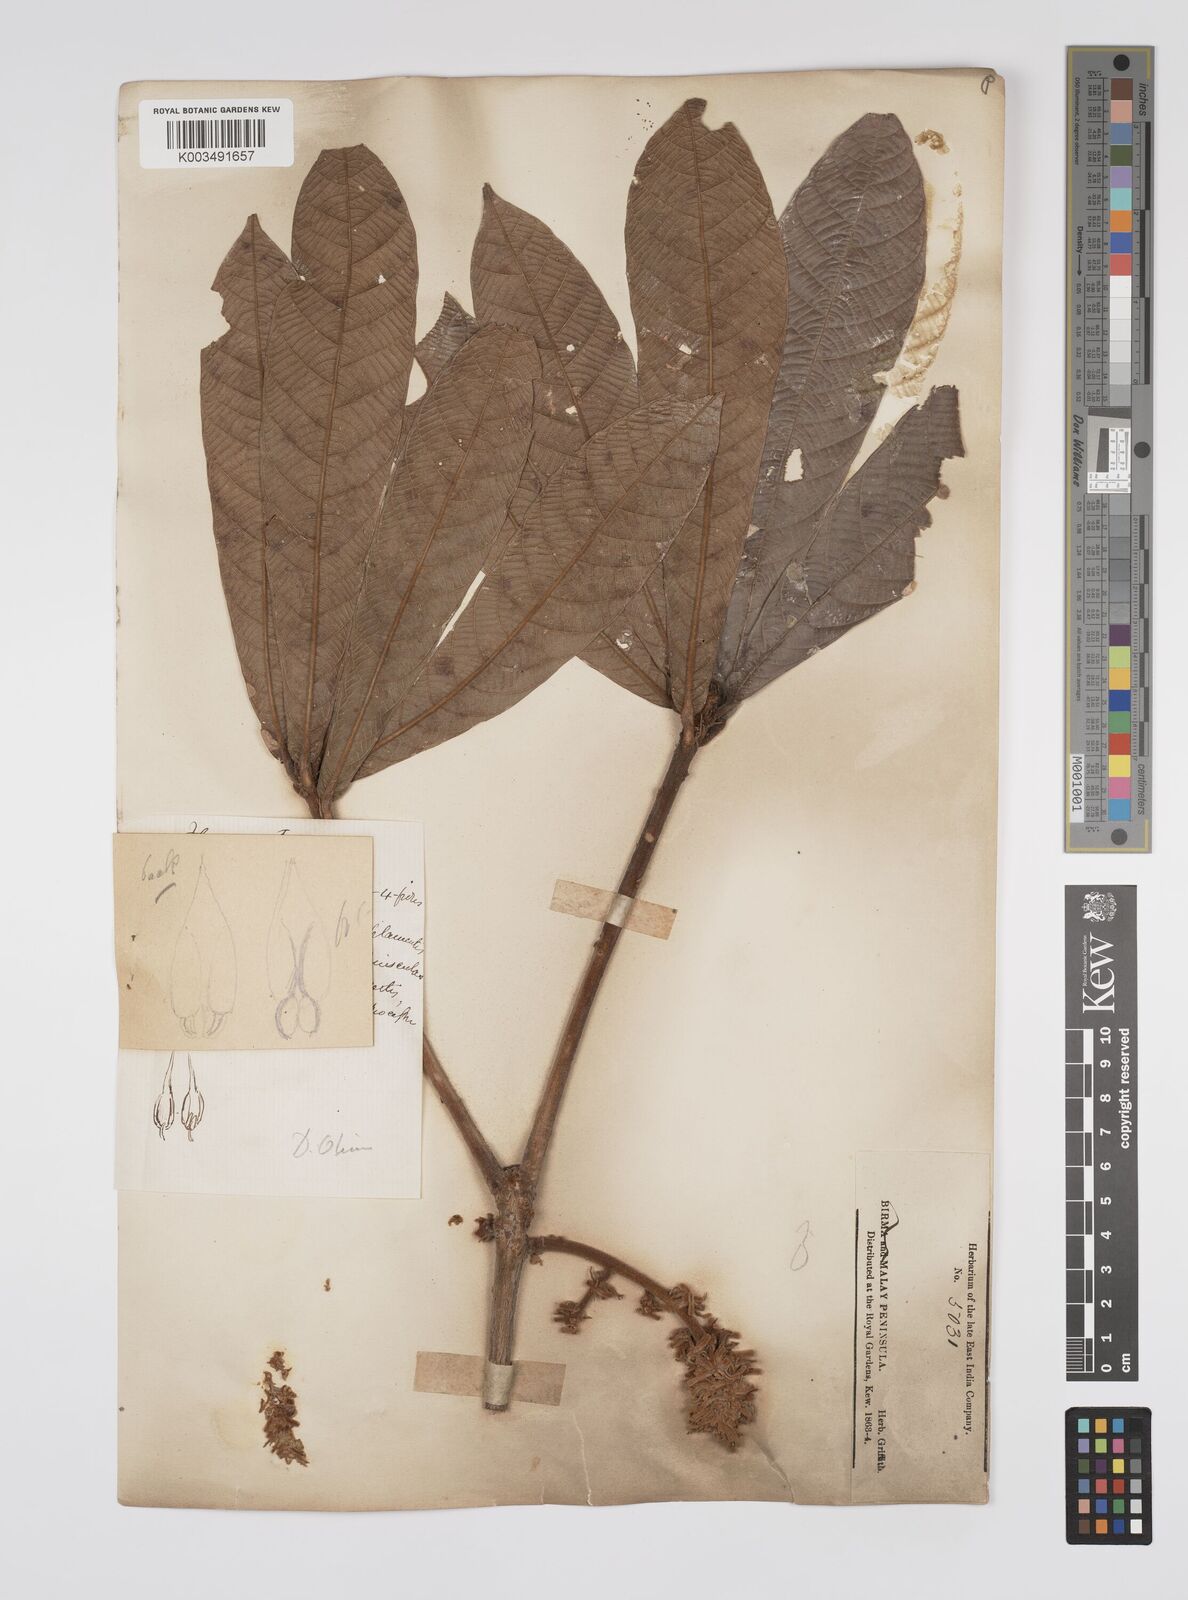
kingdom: Plantae
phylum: Tracheophyta
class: Magnoliopsida
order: Malpighiales
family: Euphorbiaceae
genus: Ptychopyxis
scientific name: Ptychopyxis costata
